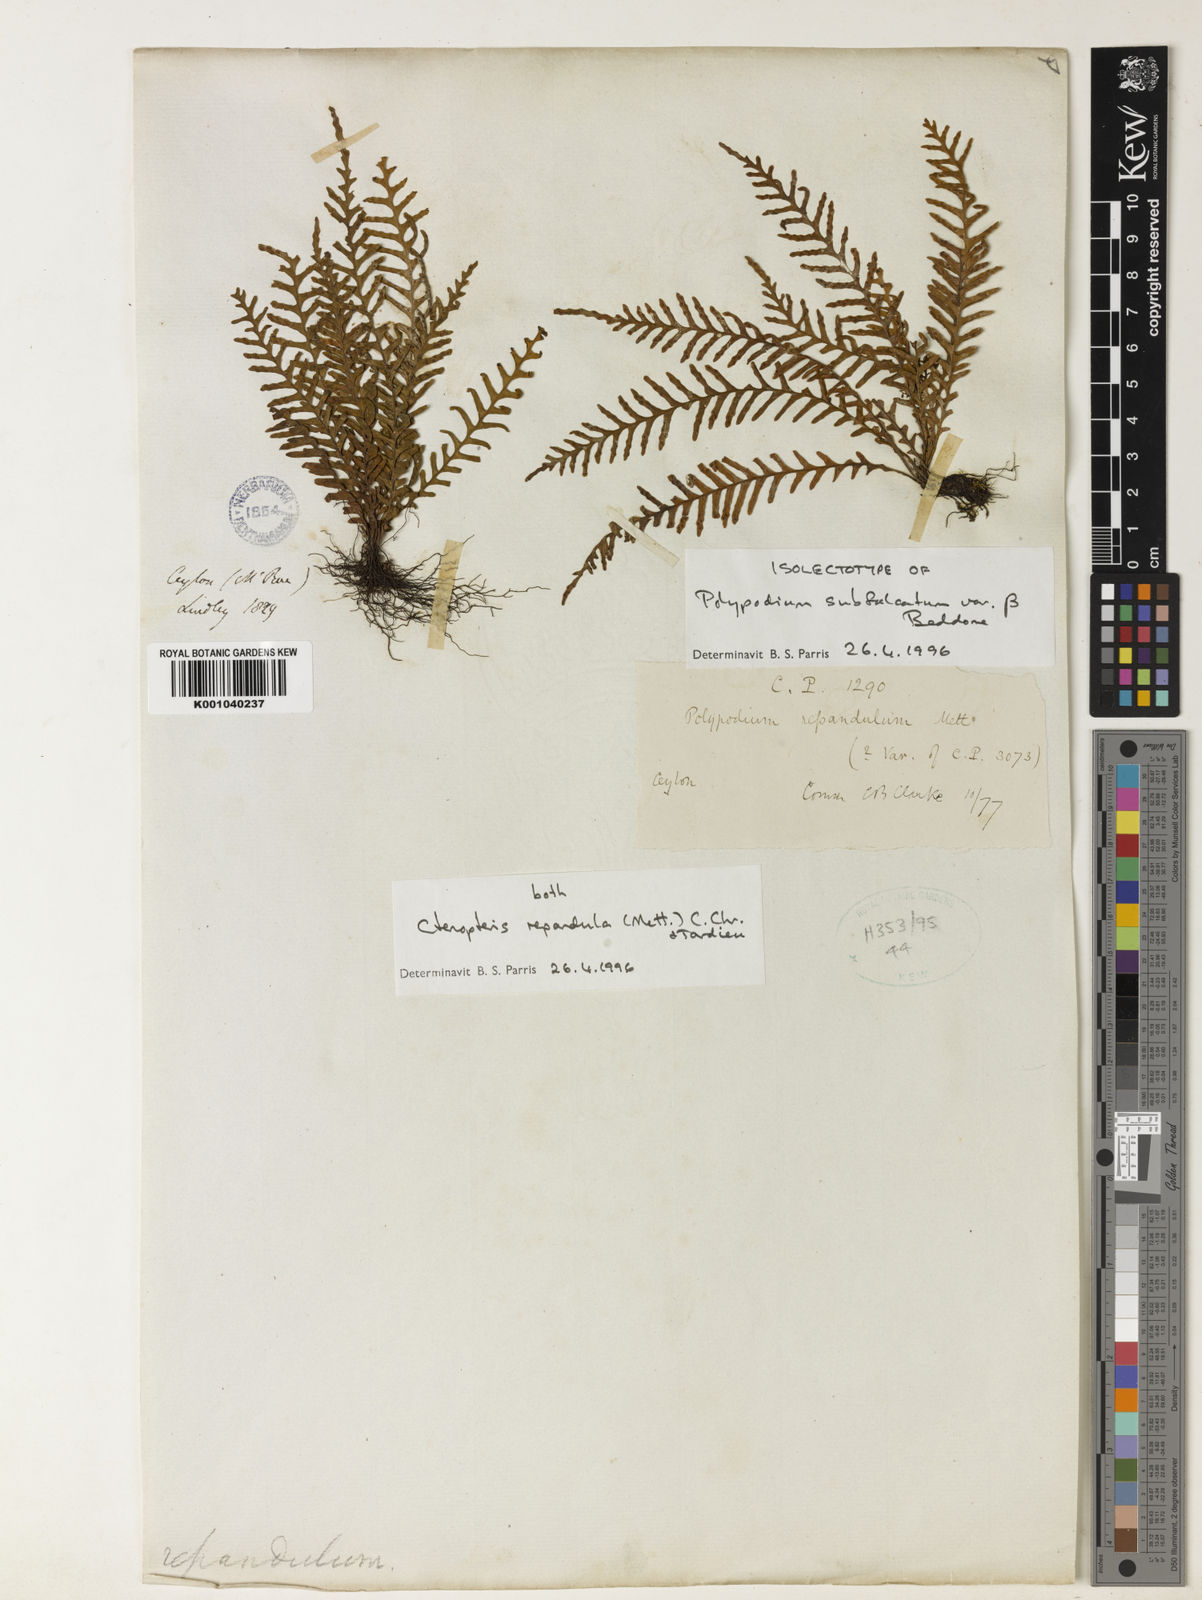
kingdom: Plantae
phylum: Tracheophyta
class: Polypodiopsida
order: Polypodiales
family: Polypodiaceae
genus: Tomophyllum
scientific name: Tomophyllum repandulum
